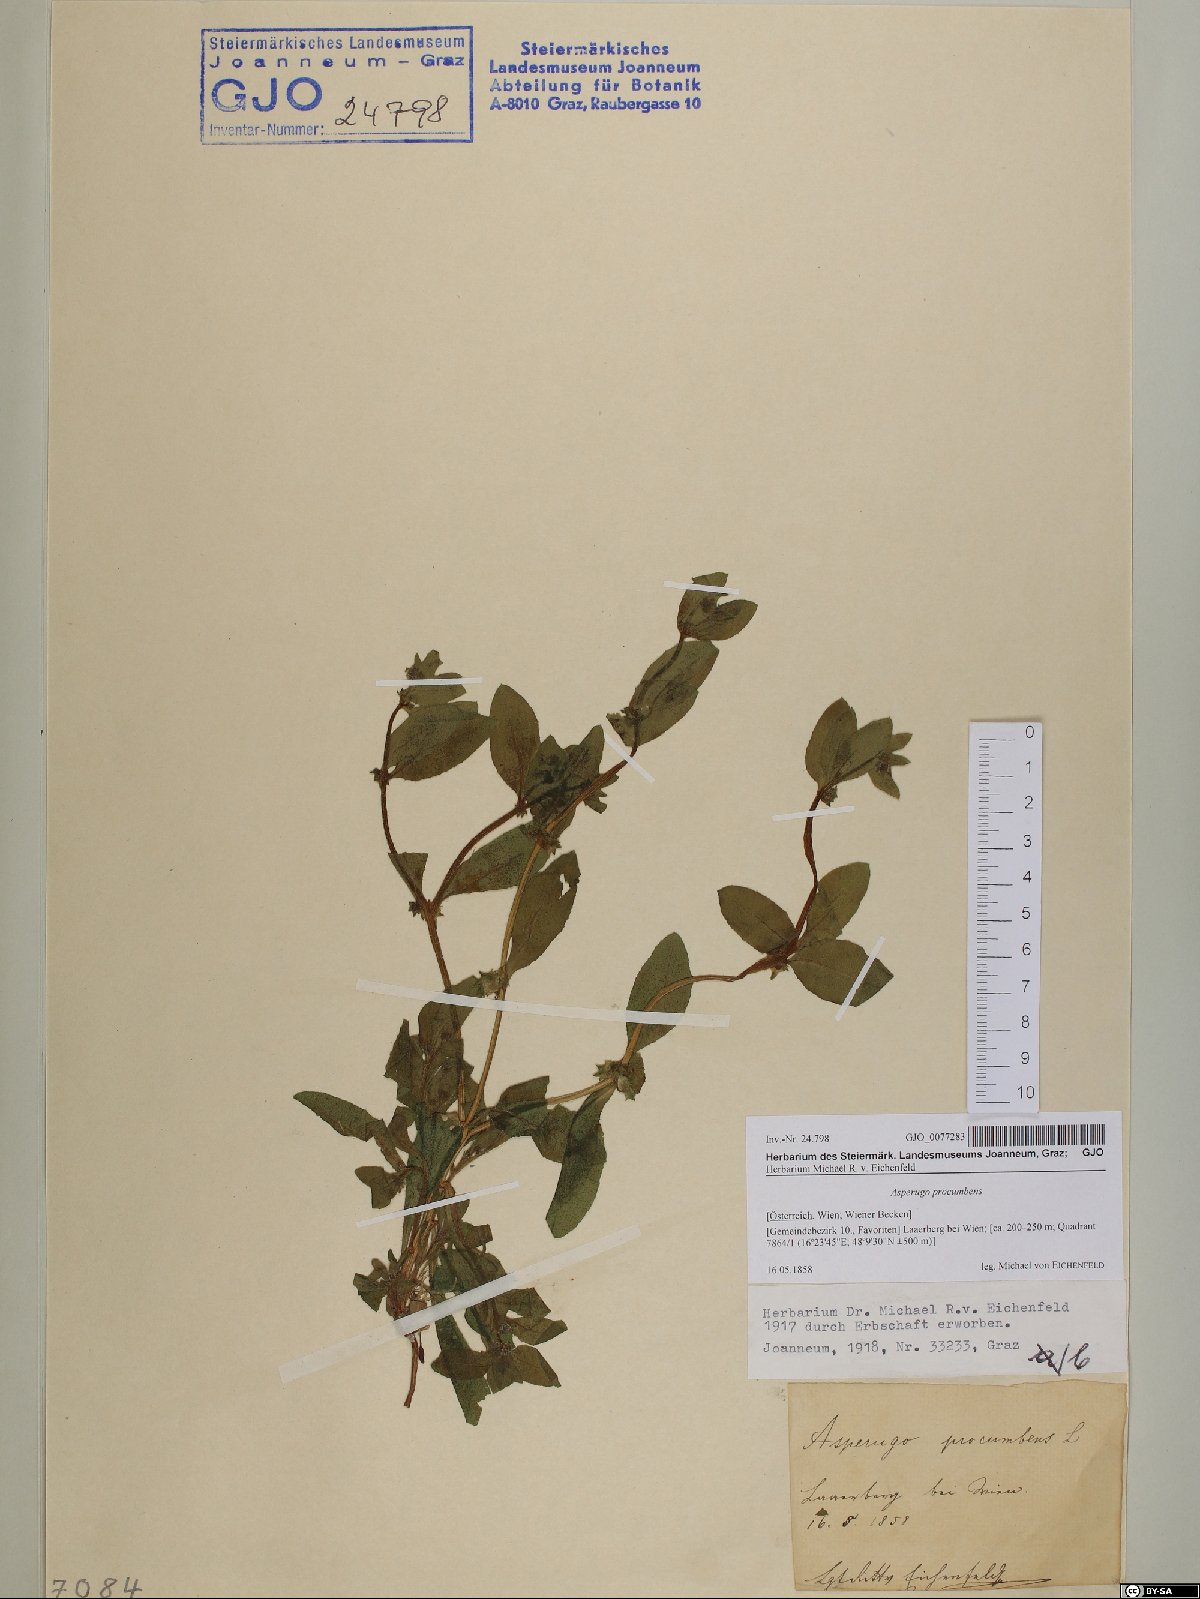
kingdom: Plantae
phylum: Tracheophyta
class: Magnoliopsida
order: Boraginales
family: Boraginaceae
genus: Asperugo
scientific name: Asperugo procumbens
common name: Madwort
